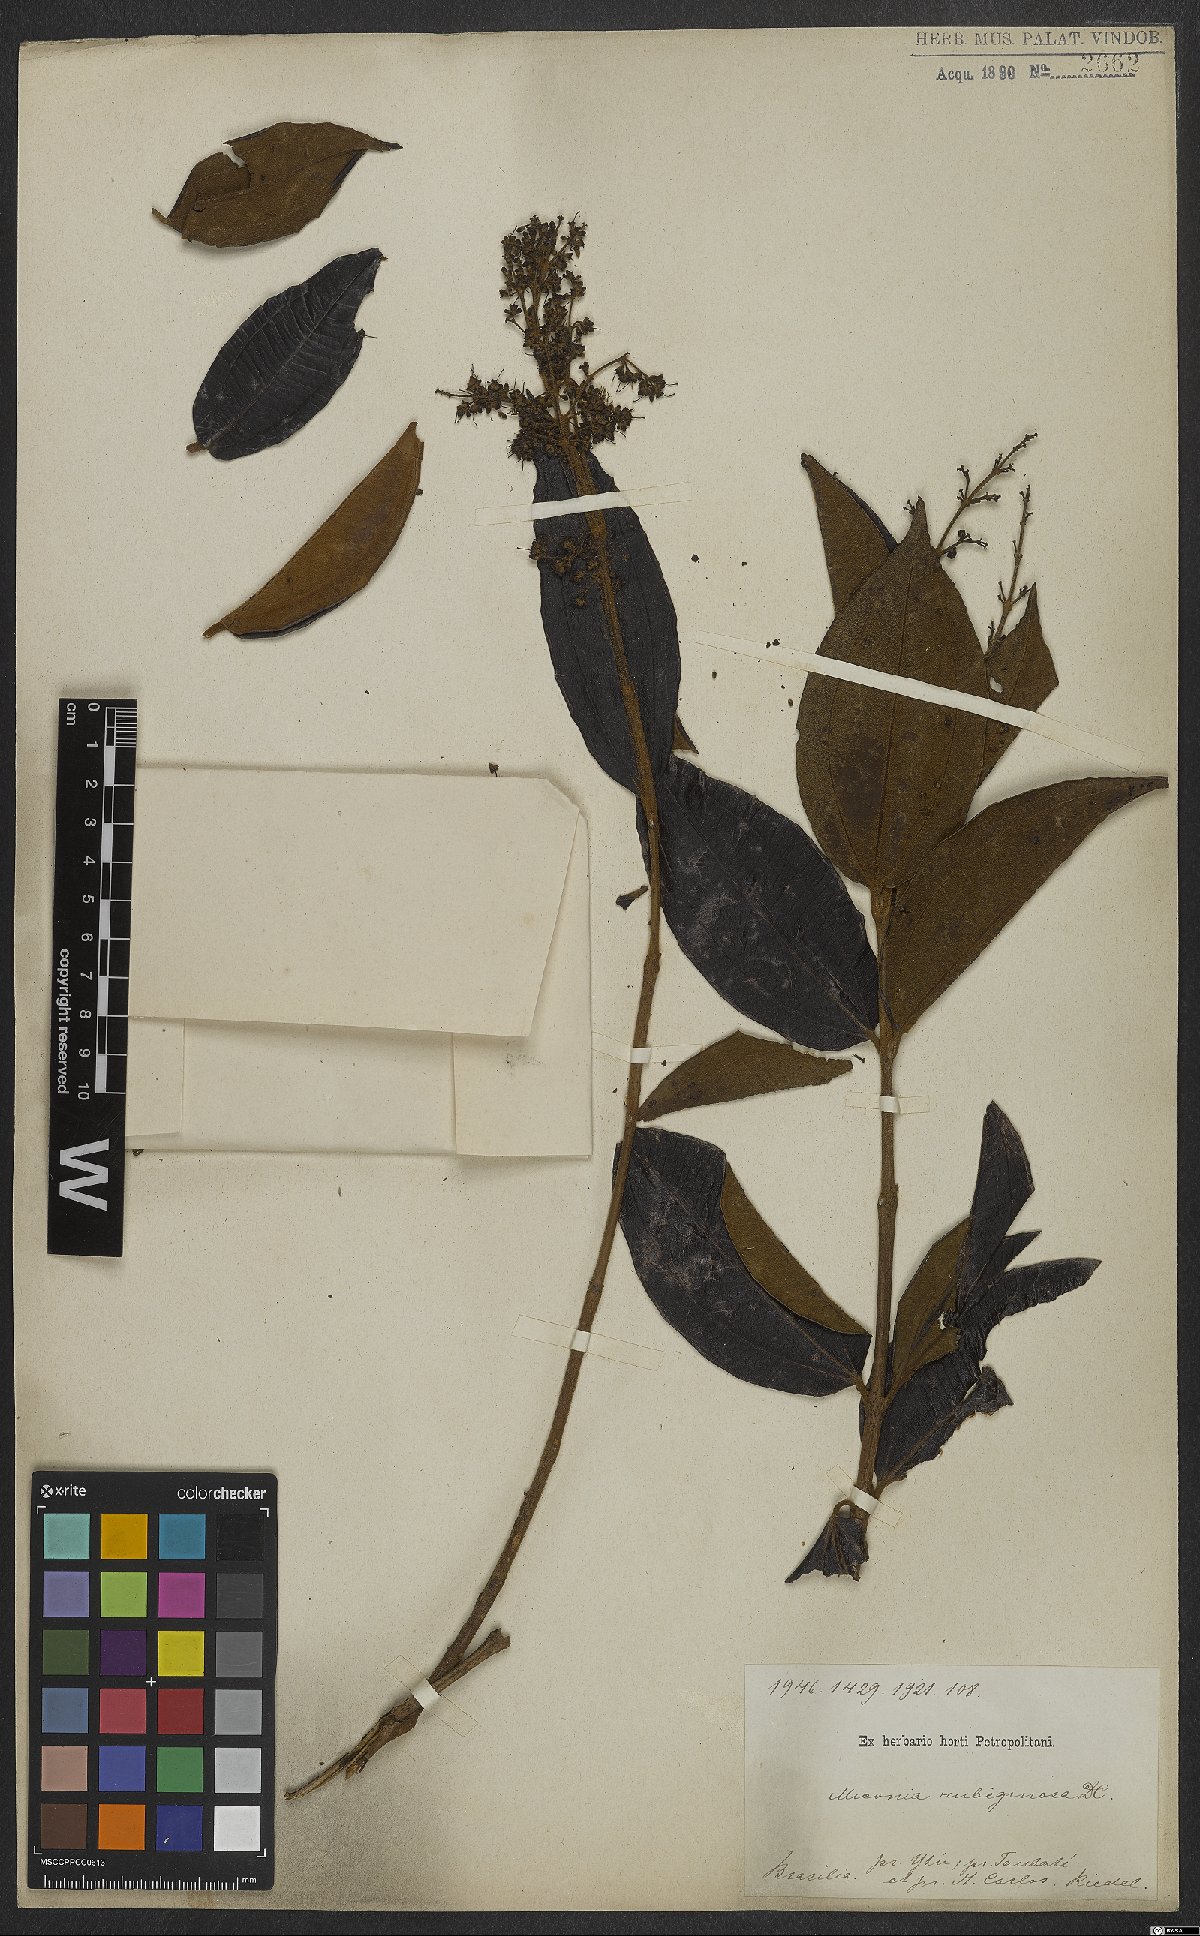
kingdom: Plantae
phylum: Tracheophyta
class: Magnoliopsida
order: Myrtales
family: Melastomataceae
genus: Miconia
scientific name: Miconia rubiginosa
